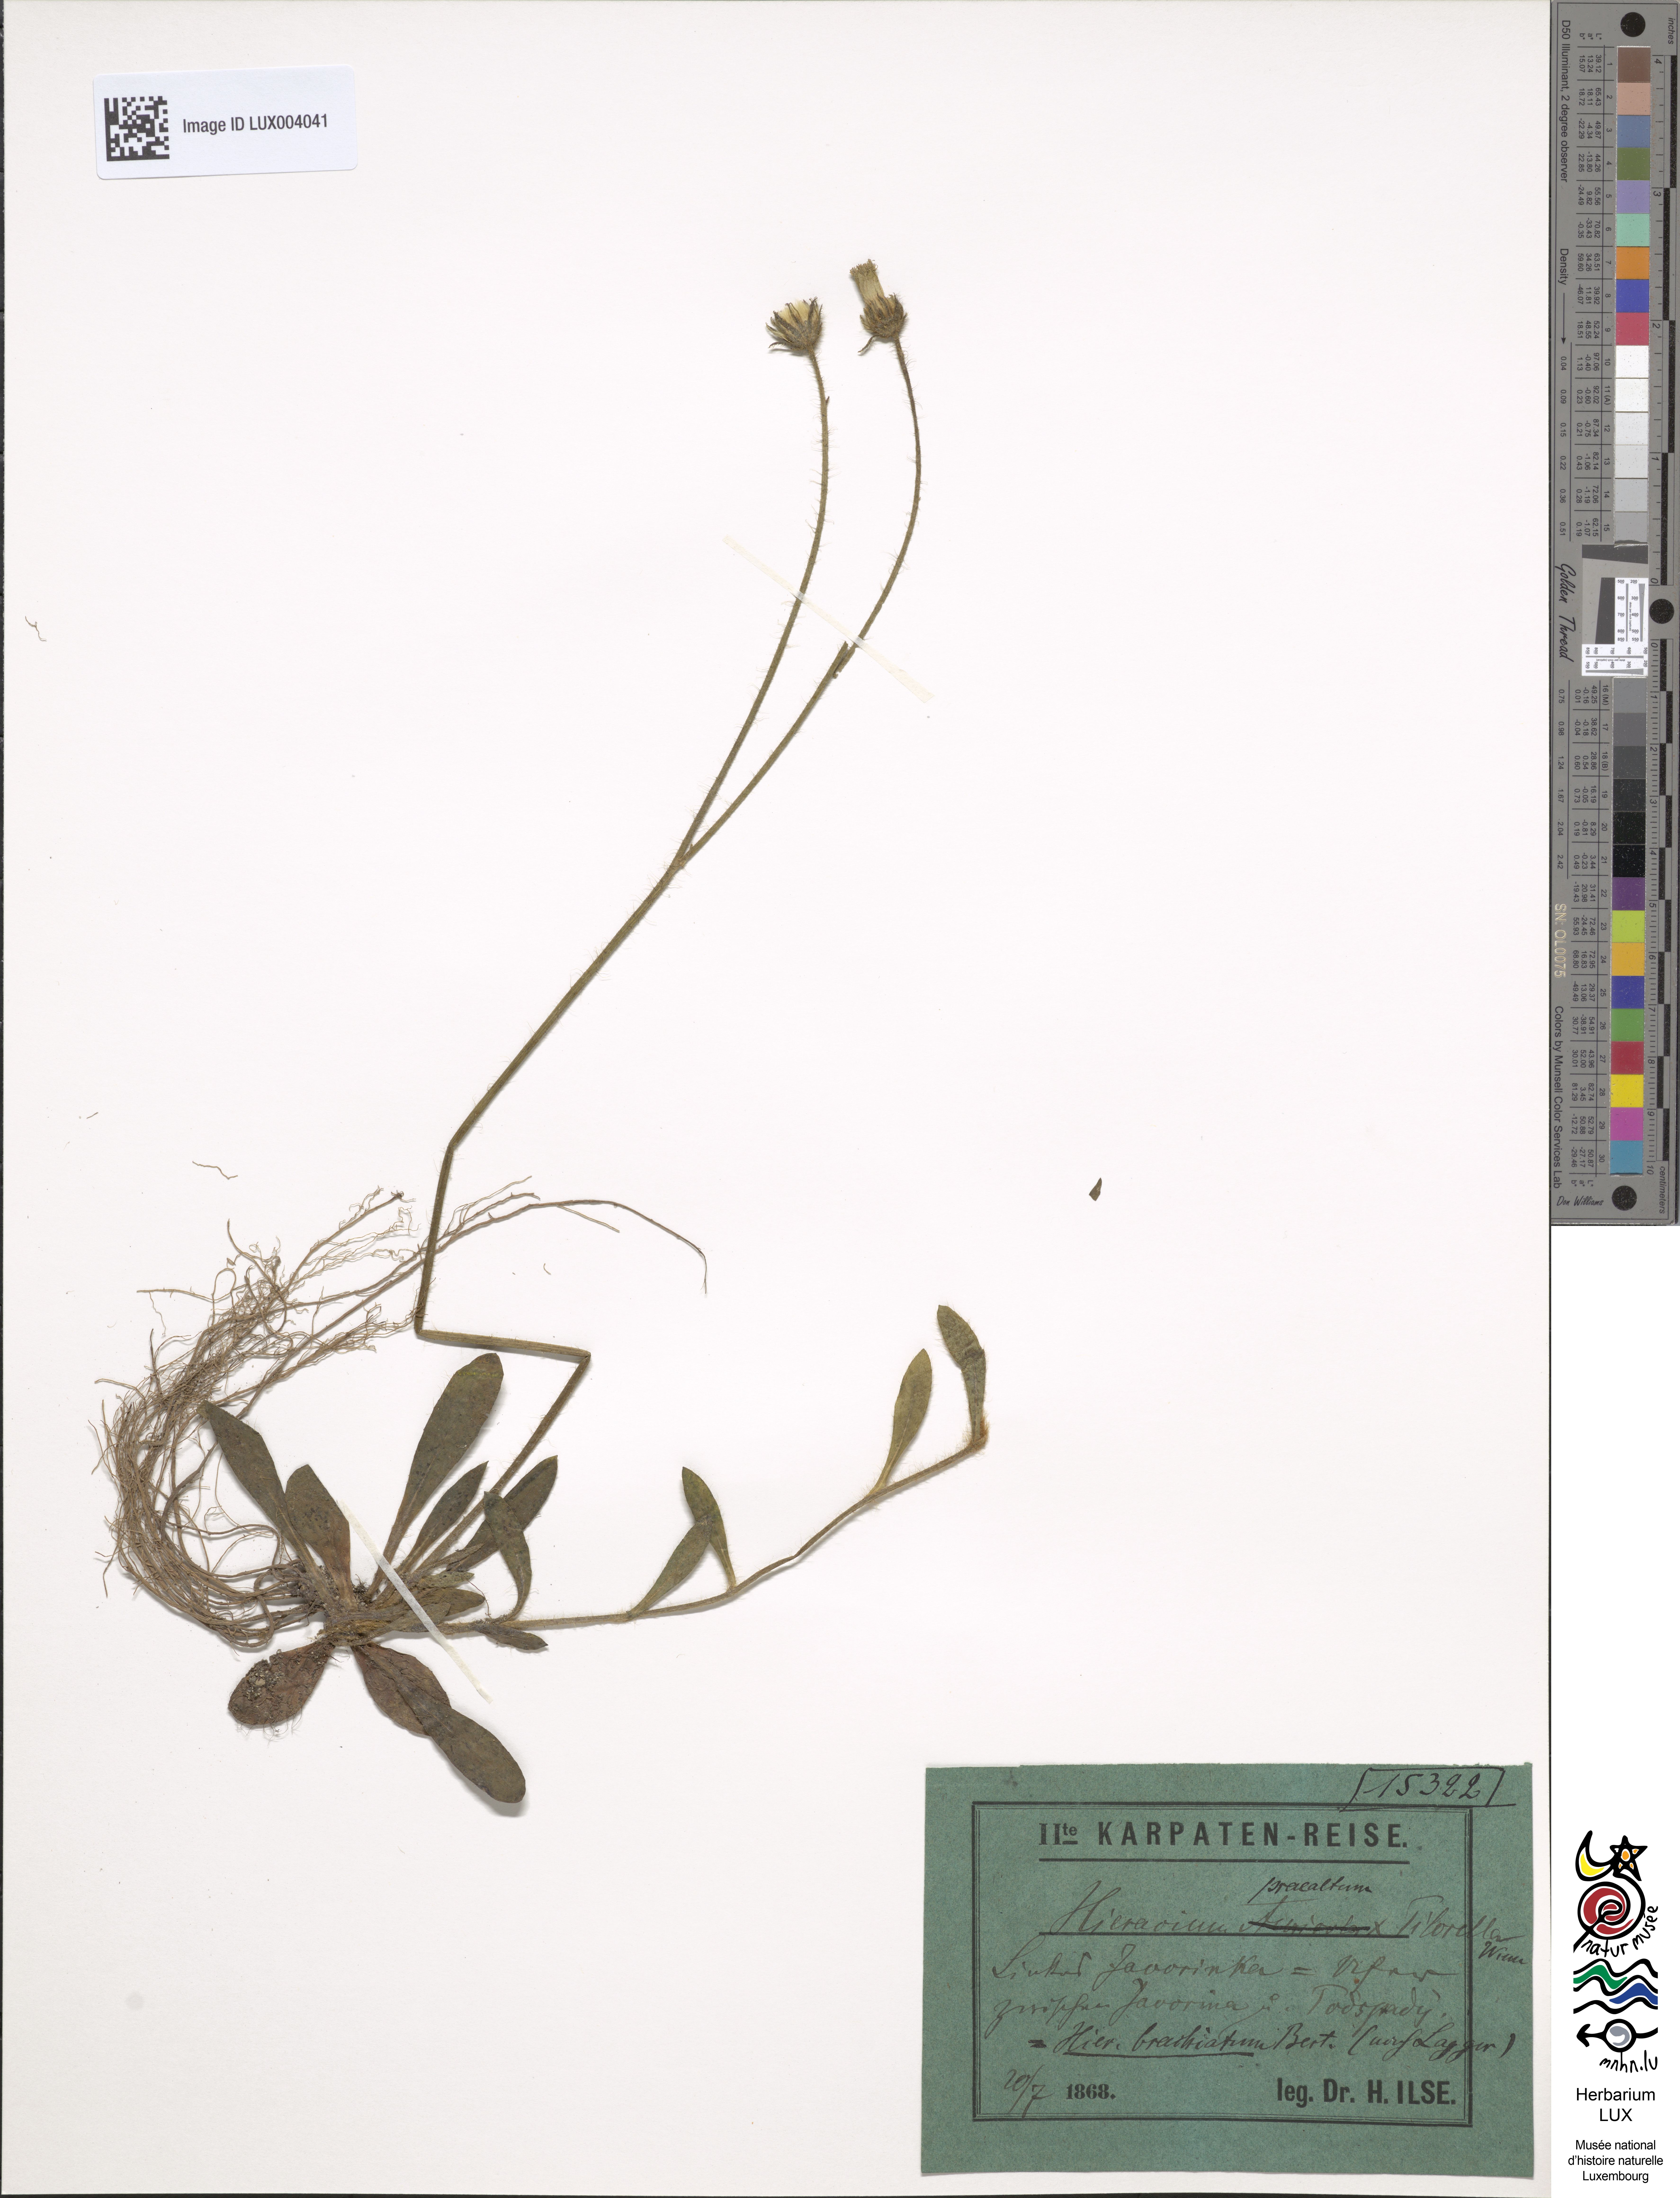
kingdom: Plantae
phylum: Tracheophyta
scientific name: Tracheophyta
